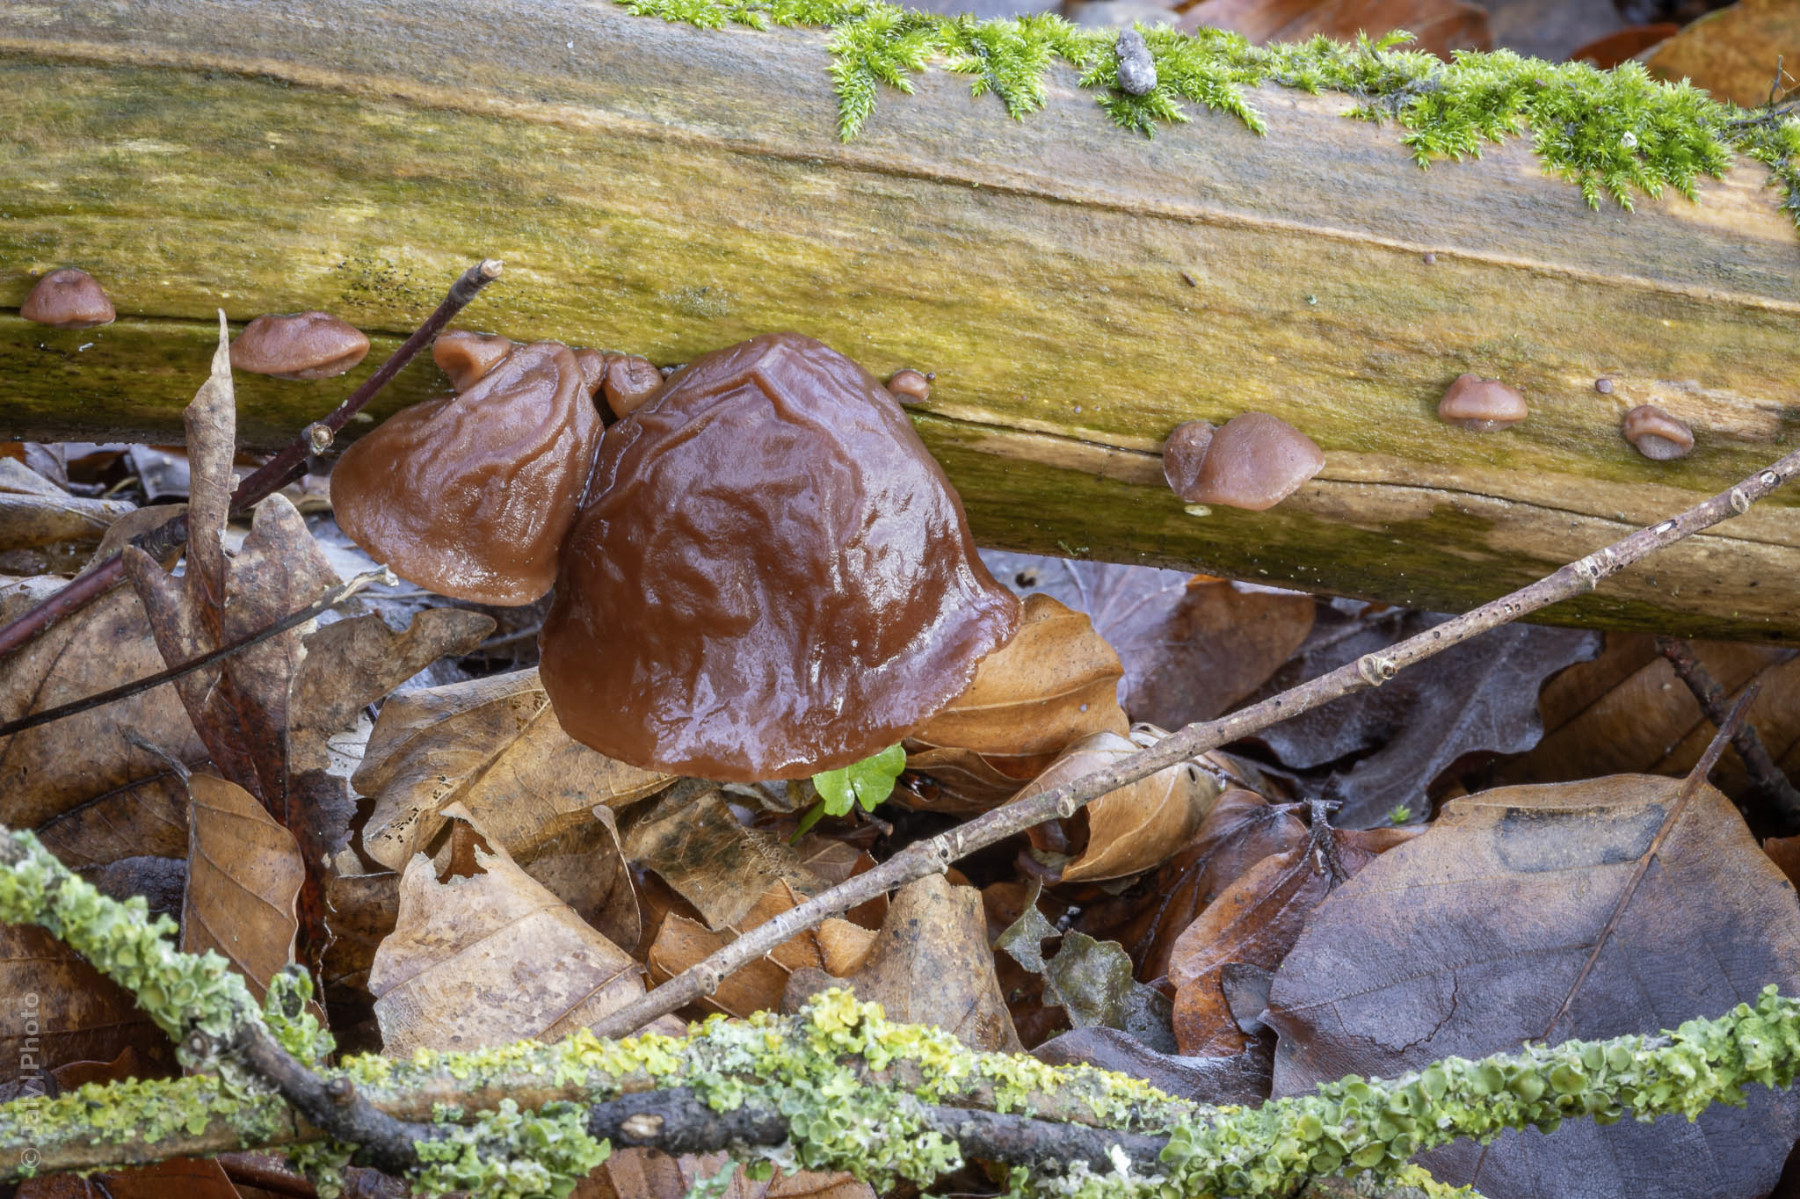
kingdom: Fungi
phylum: Basidiomycota
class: Agaricomycetes
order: Auriculariales
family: Auriculariaceae
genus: Auricularia
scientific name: Auricularia auricula-judae
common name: almindelig judasøre
